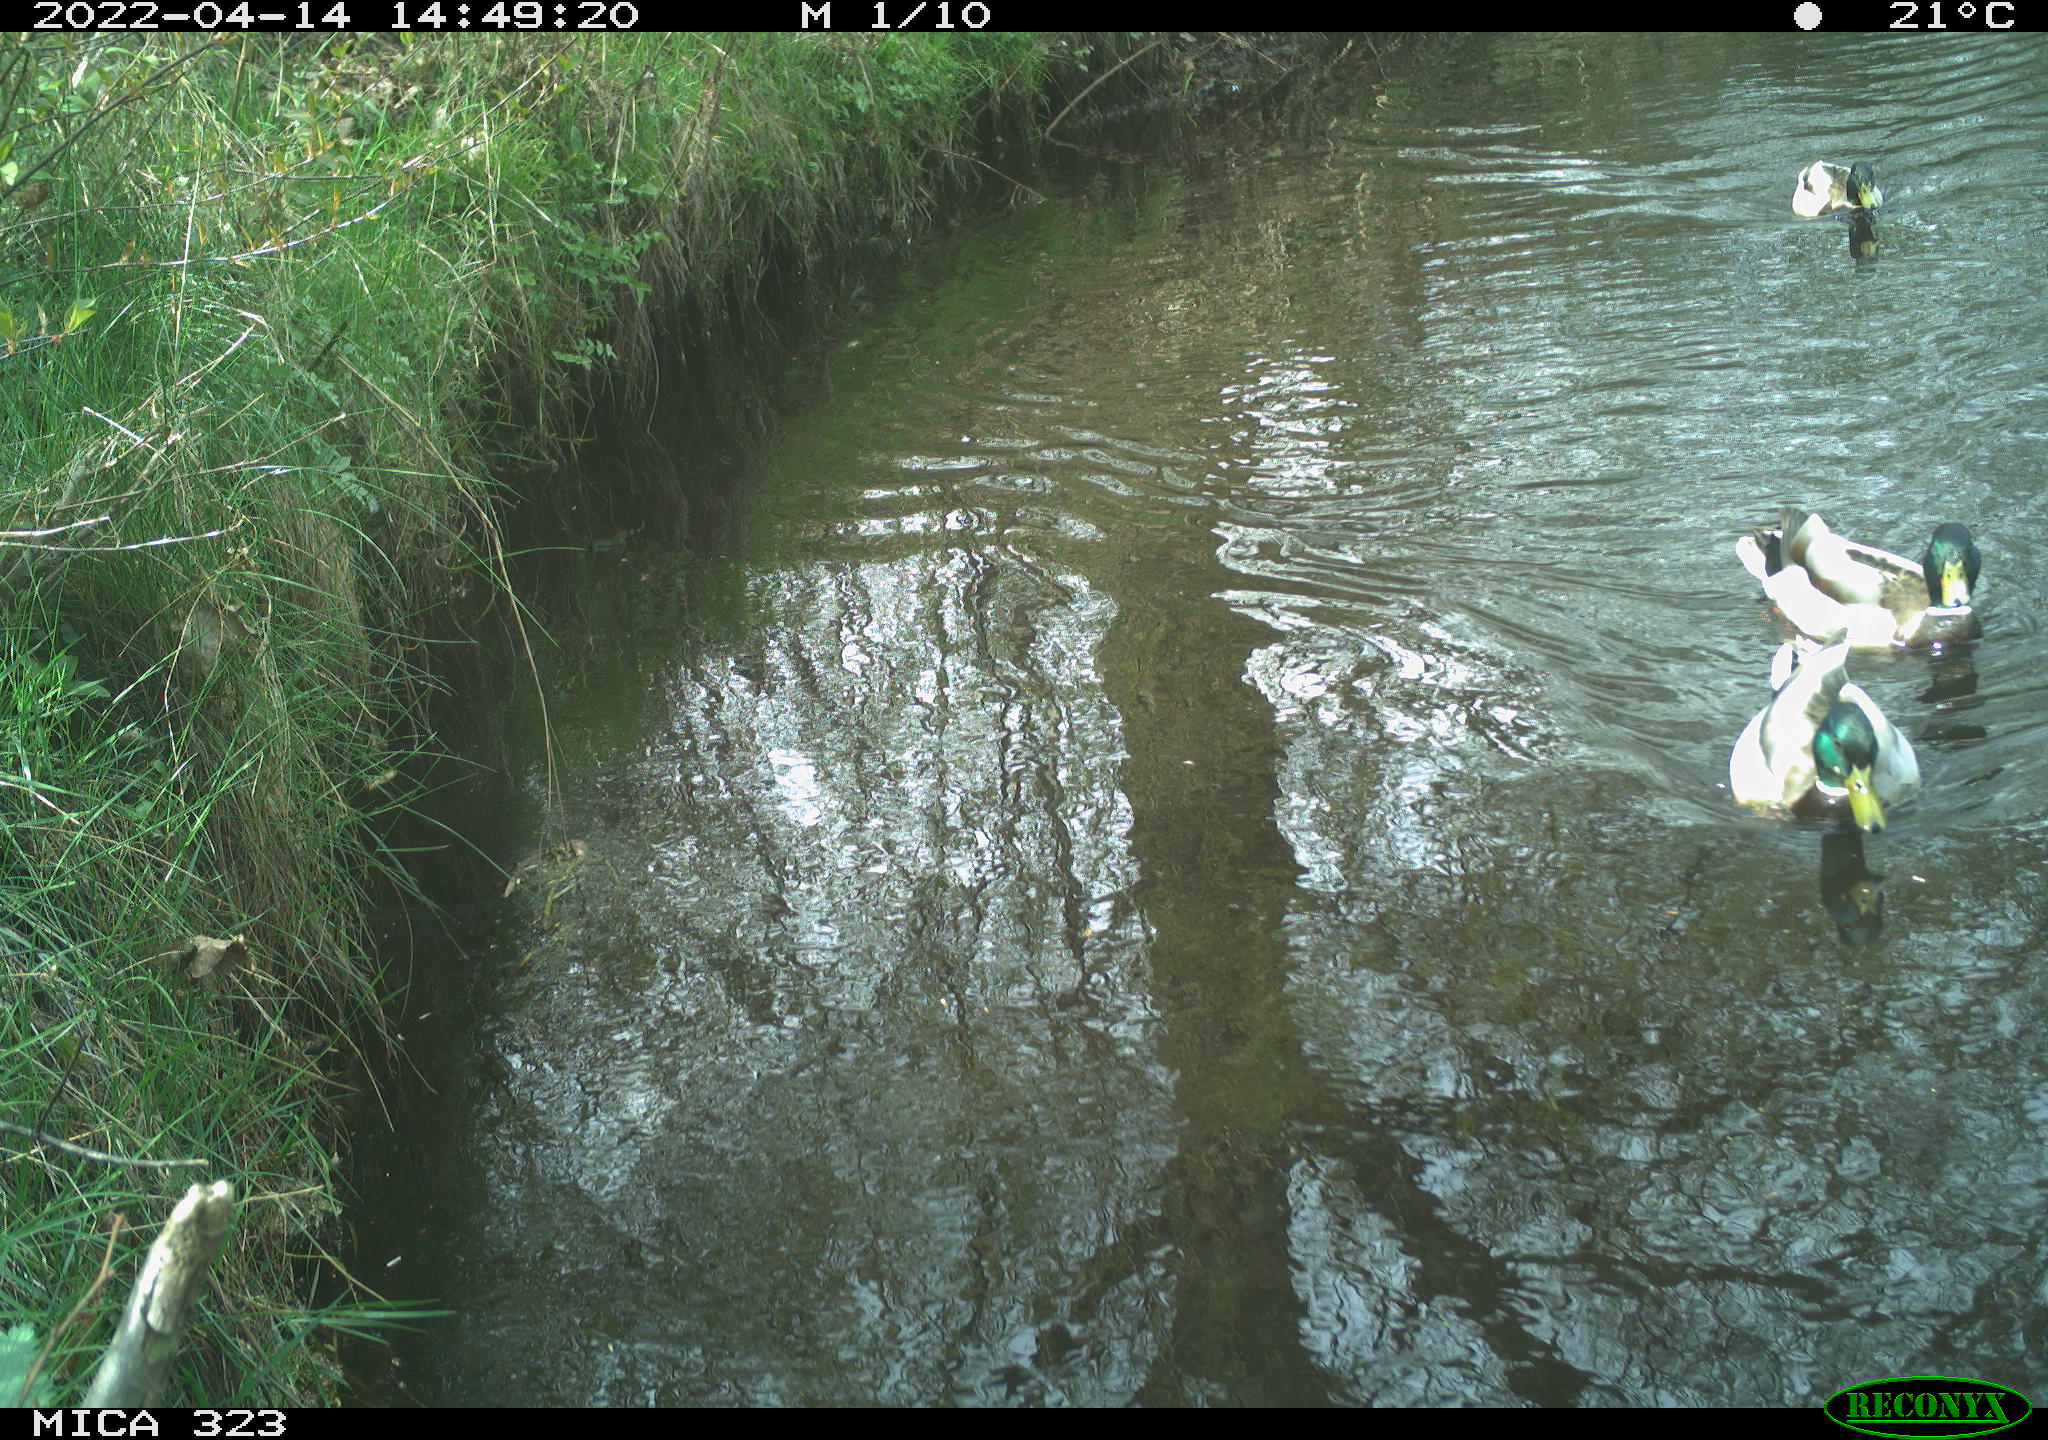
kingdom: Animalia
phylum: Chordata
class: Aves
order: Anseriformes
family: Anatidae
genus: Anas
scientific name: Anas platyrhynchos
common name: Mallard
